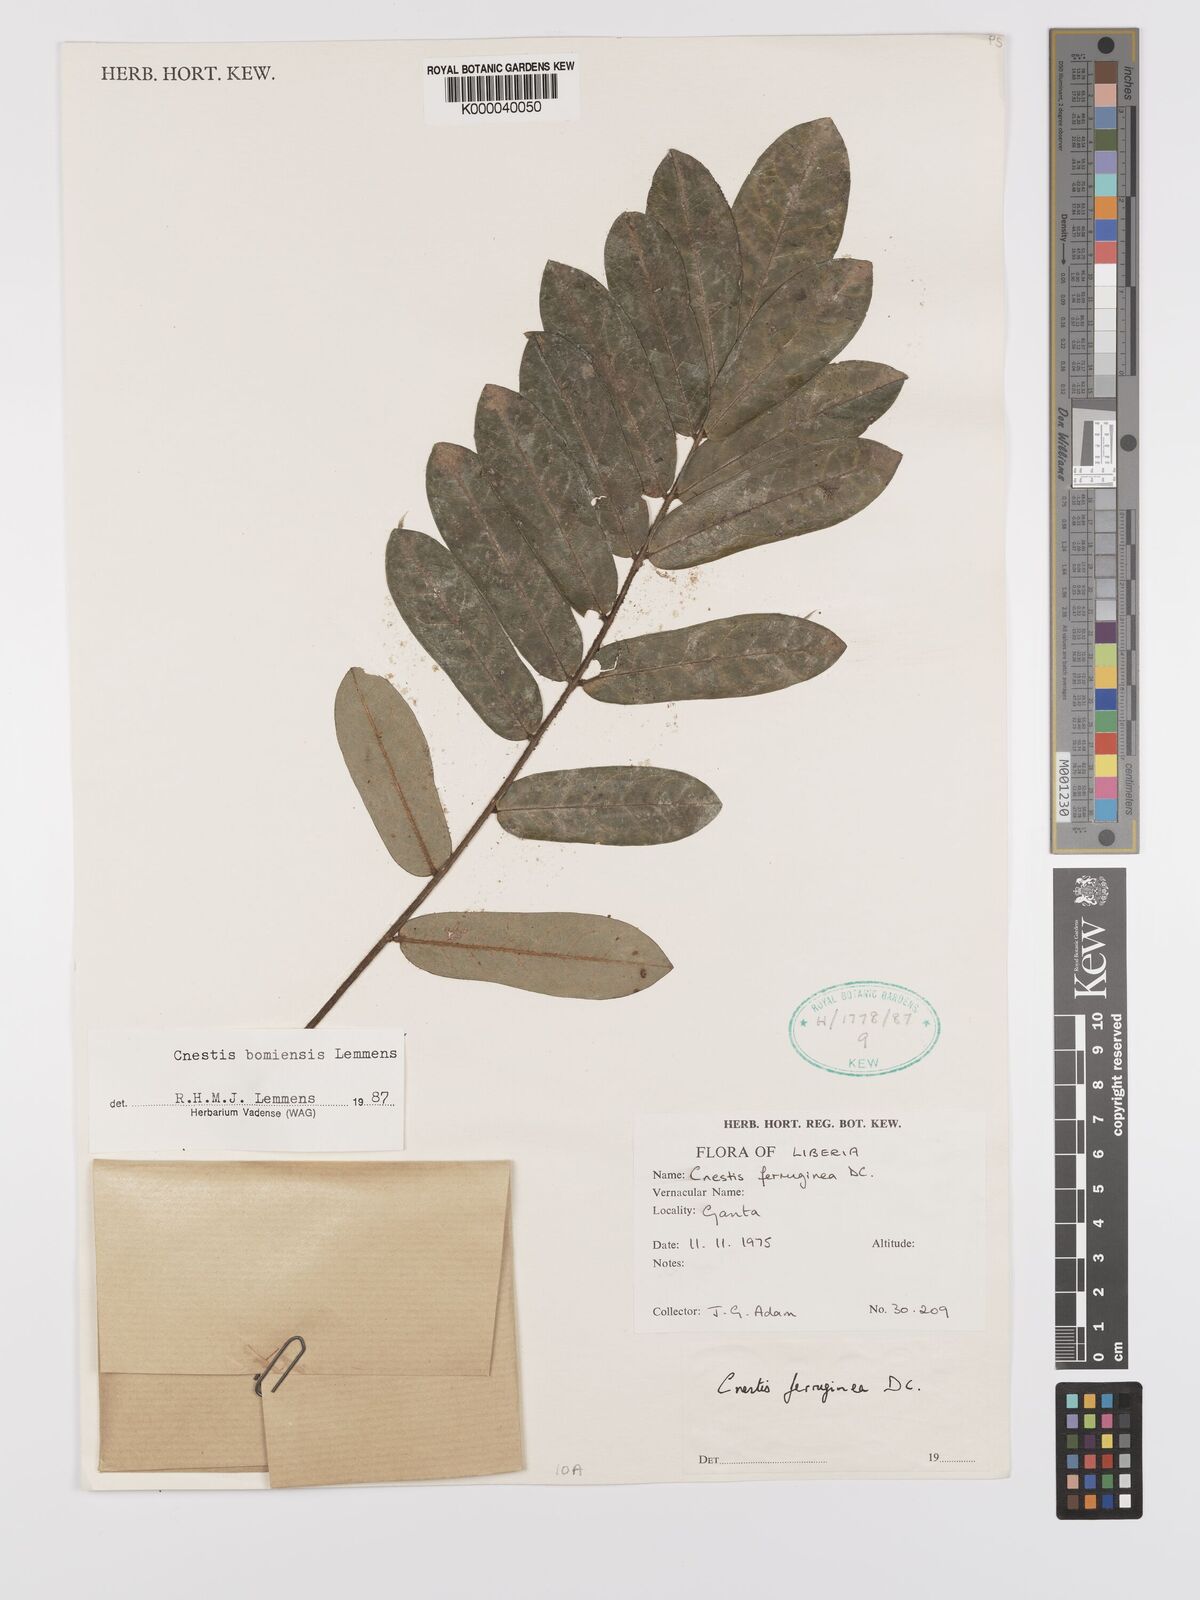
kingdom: Plantae
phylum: Tracheophyta
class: Magnoliopsida
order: Oxalidales
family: Connaraceae
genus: Cnestis
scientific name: Cnestis bomiensis
